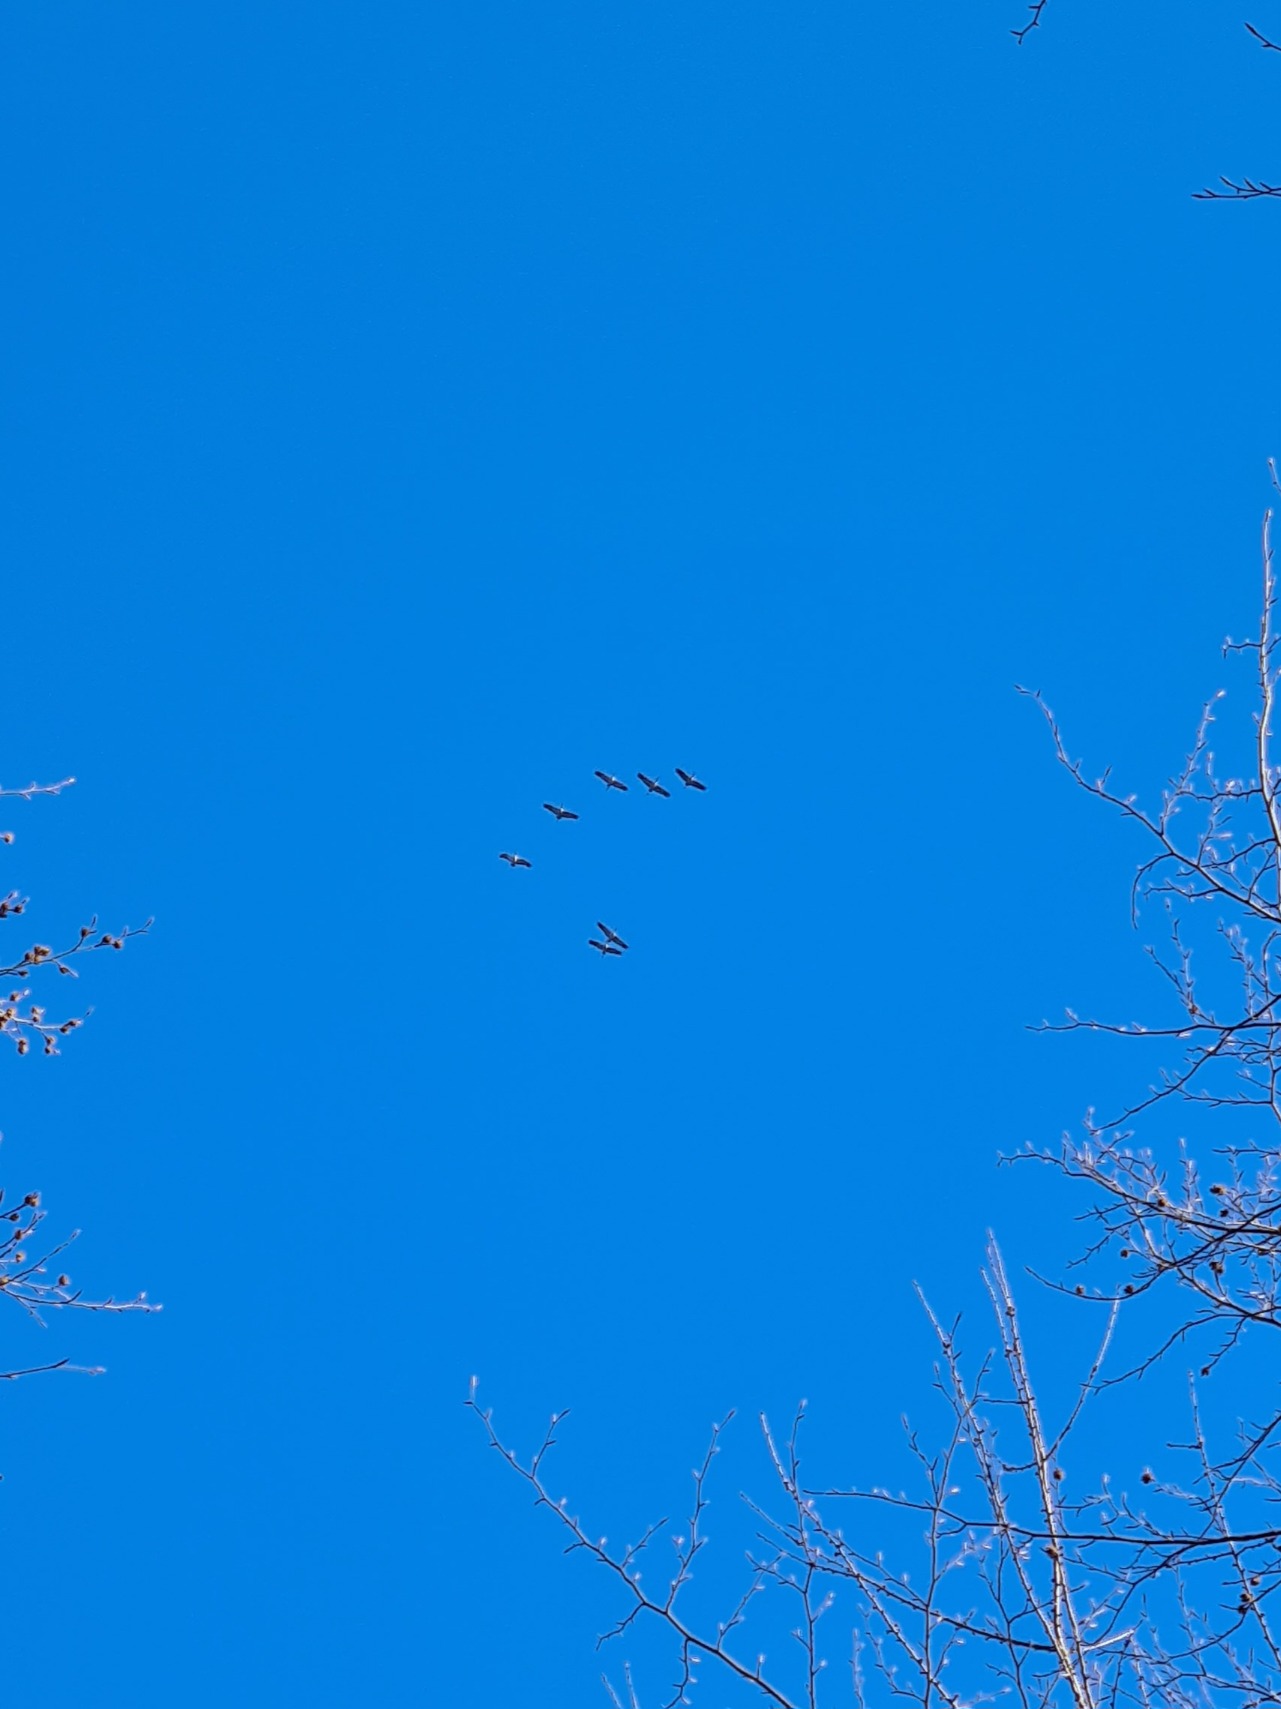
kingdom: Animalia
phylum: Chordata
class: Aves
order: Gruiformes
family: Gruidae
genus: Grus
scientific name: Grus grus
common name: Trane
